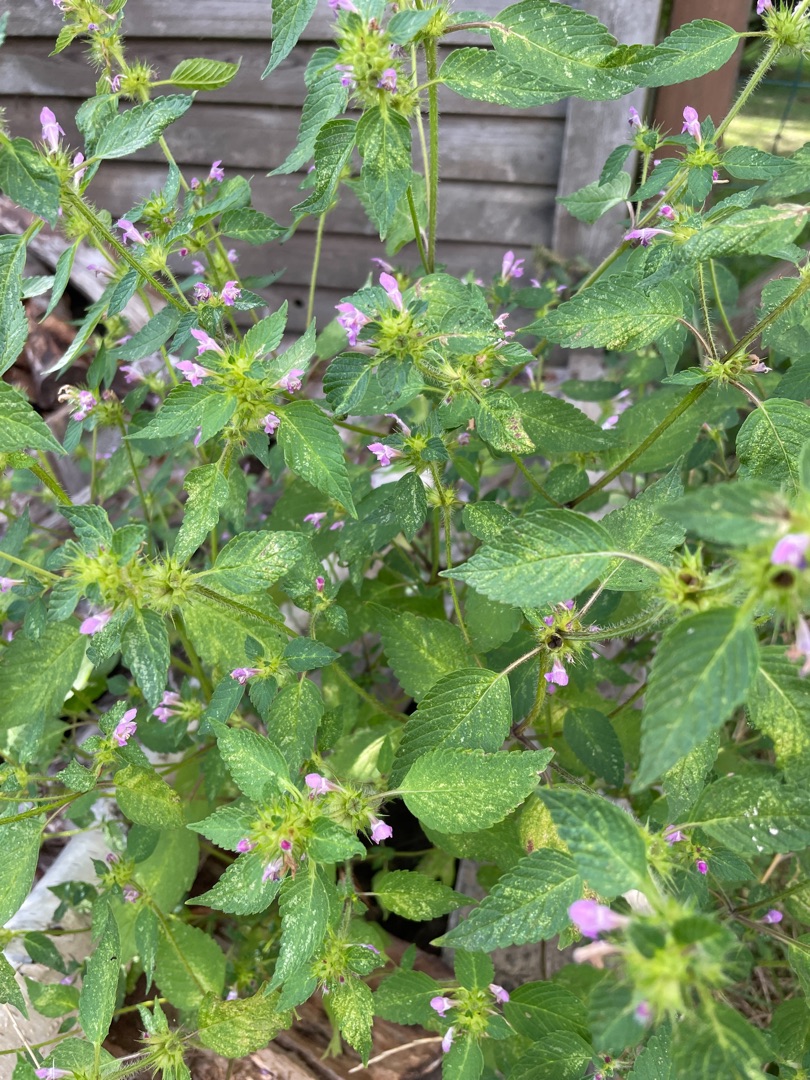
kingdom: Plantae
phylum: Tracheophyta
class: Magnoliopsida
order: Lamiales
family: Lamiaceae
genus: Galeopsis
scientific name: Galeopsis bifida
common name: Skov-hanekro
